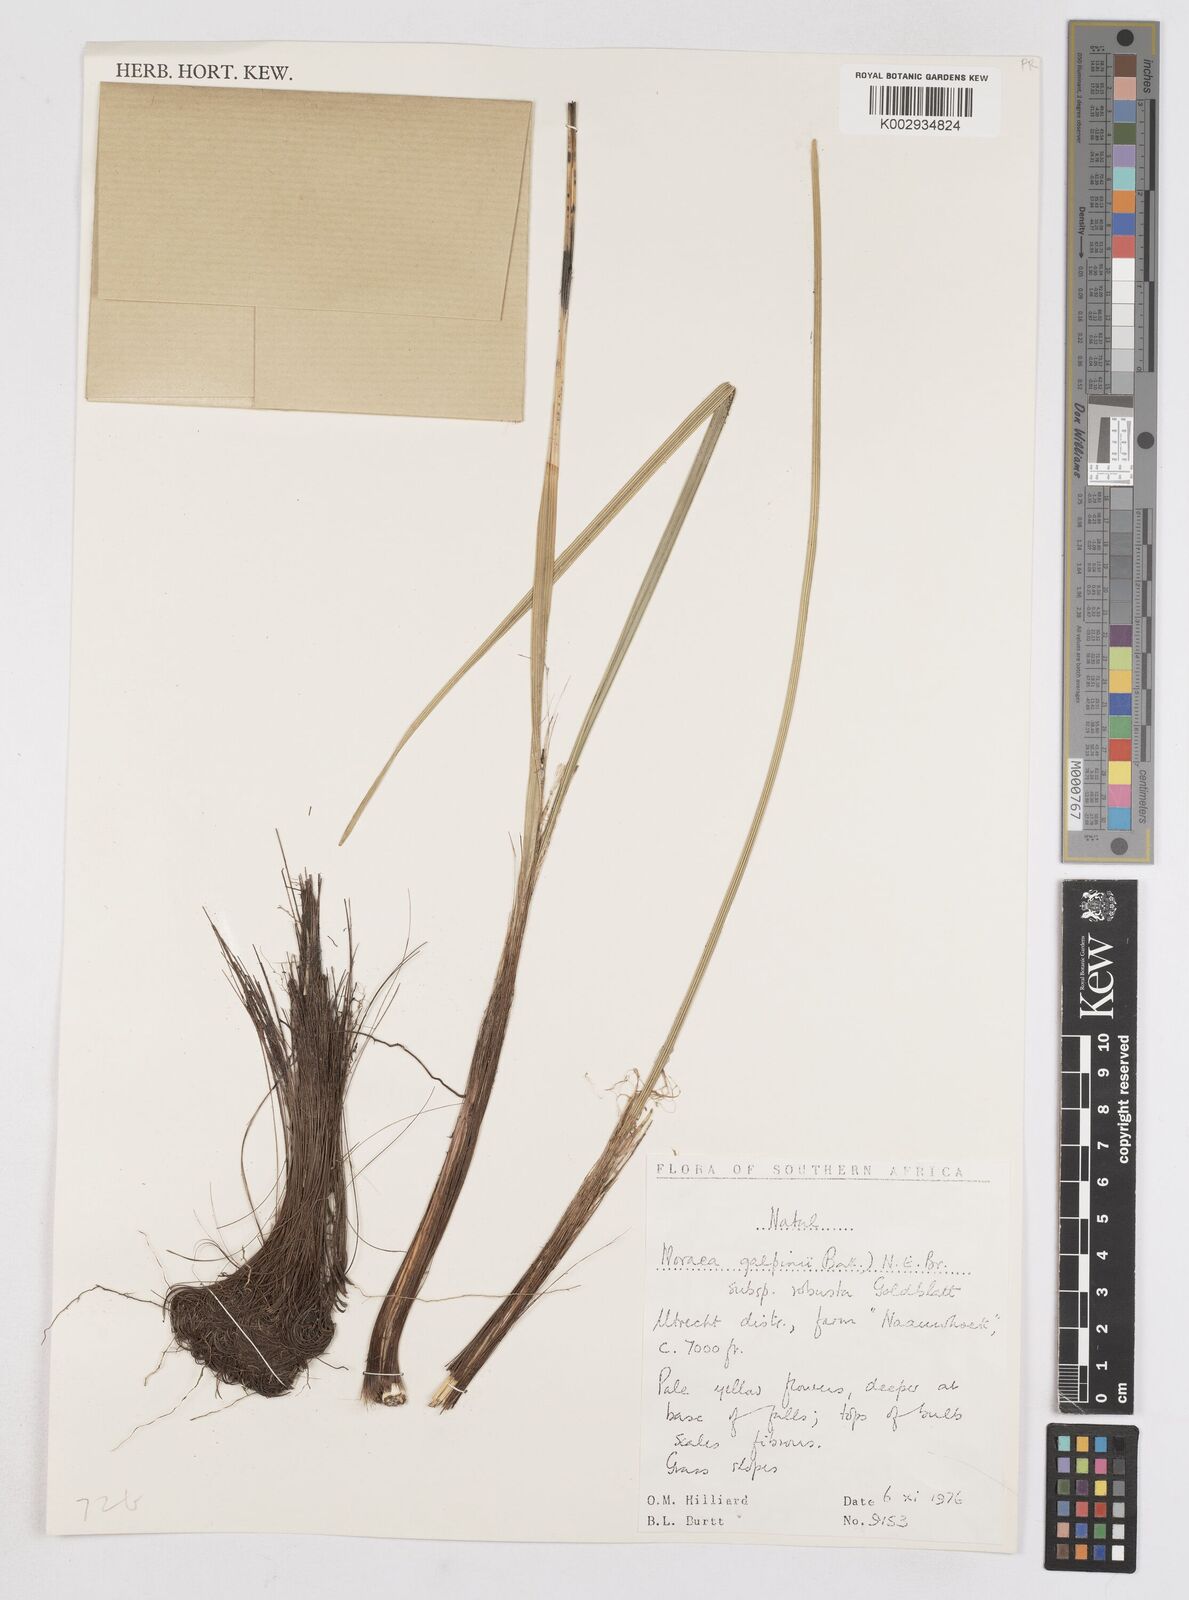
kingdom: Plantae
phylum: Tracheophyta
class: Liliopsida
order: Asparagales
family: Iridaceae
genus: Moraea
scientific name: Moraea robusta
